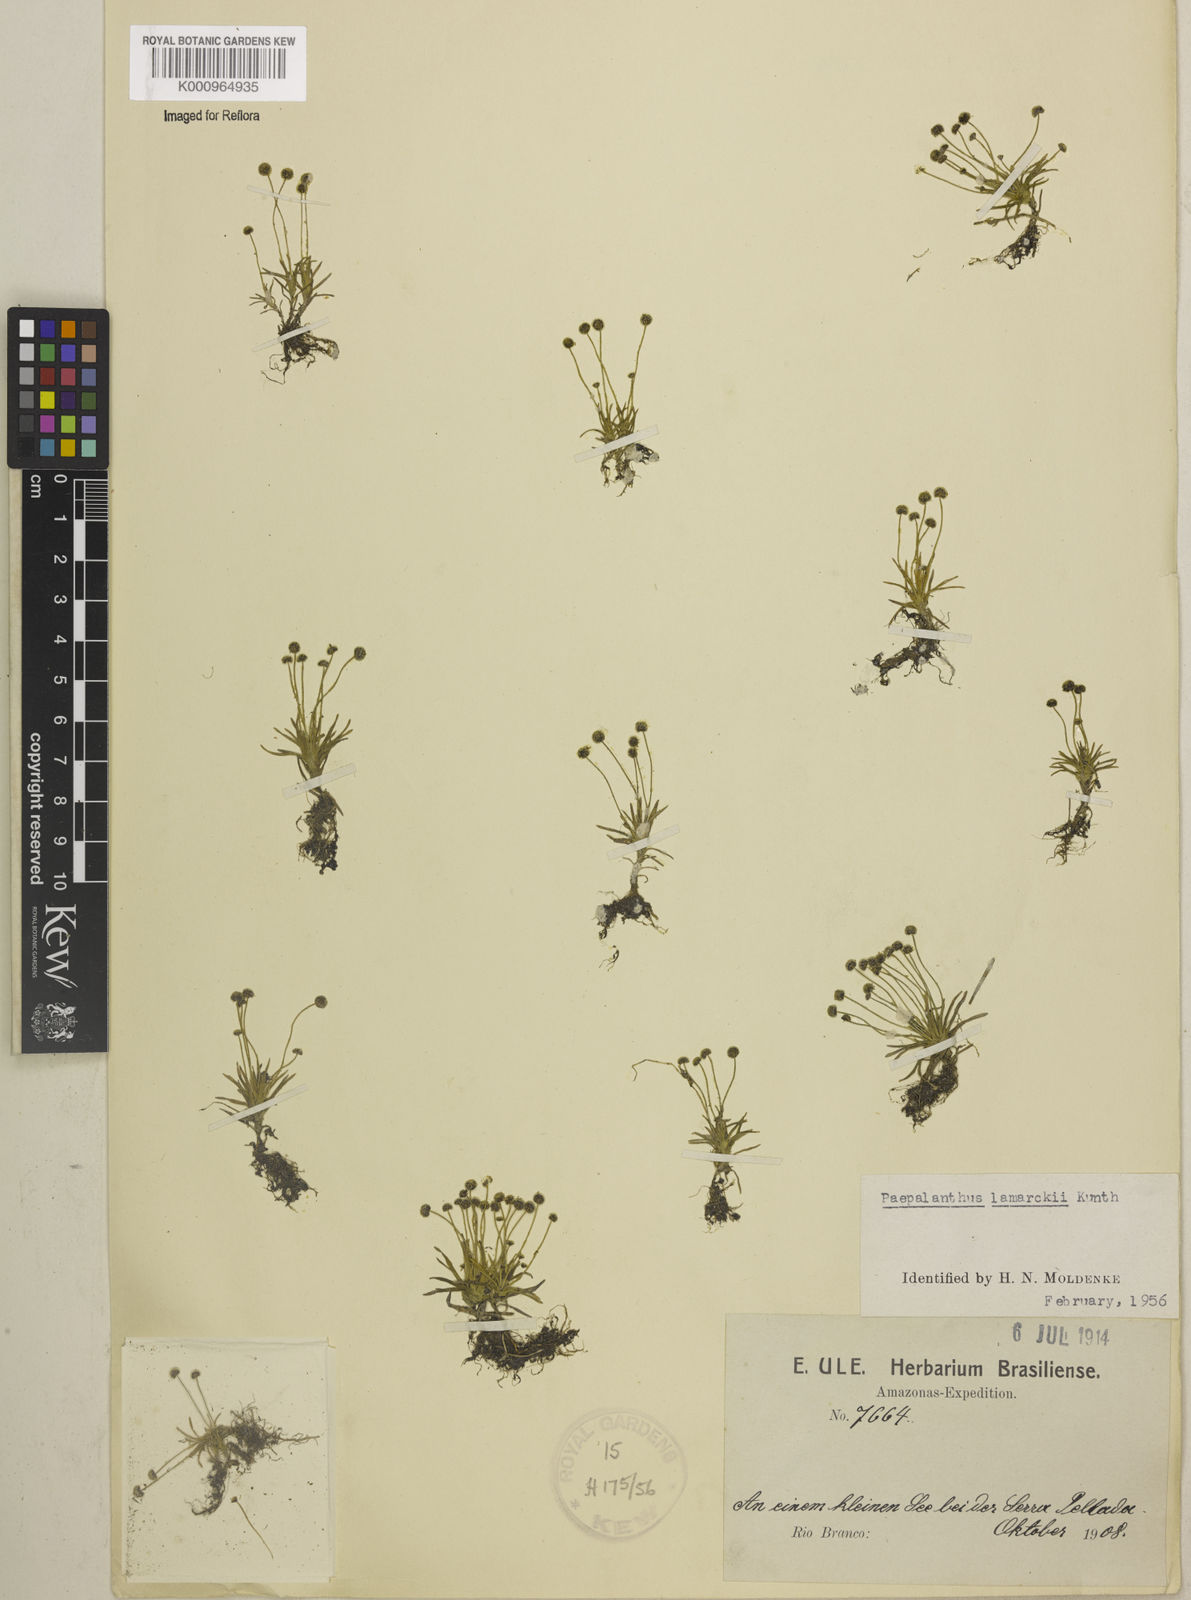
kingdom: Plantae
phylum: Tracheophyta
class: Liliopsida
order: Poales
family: Eriocaulaceae
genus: Paepalanthus
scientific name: Paepalanthus lamarckii
